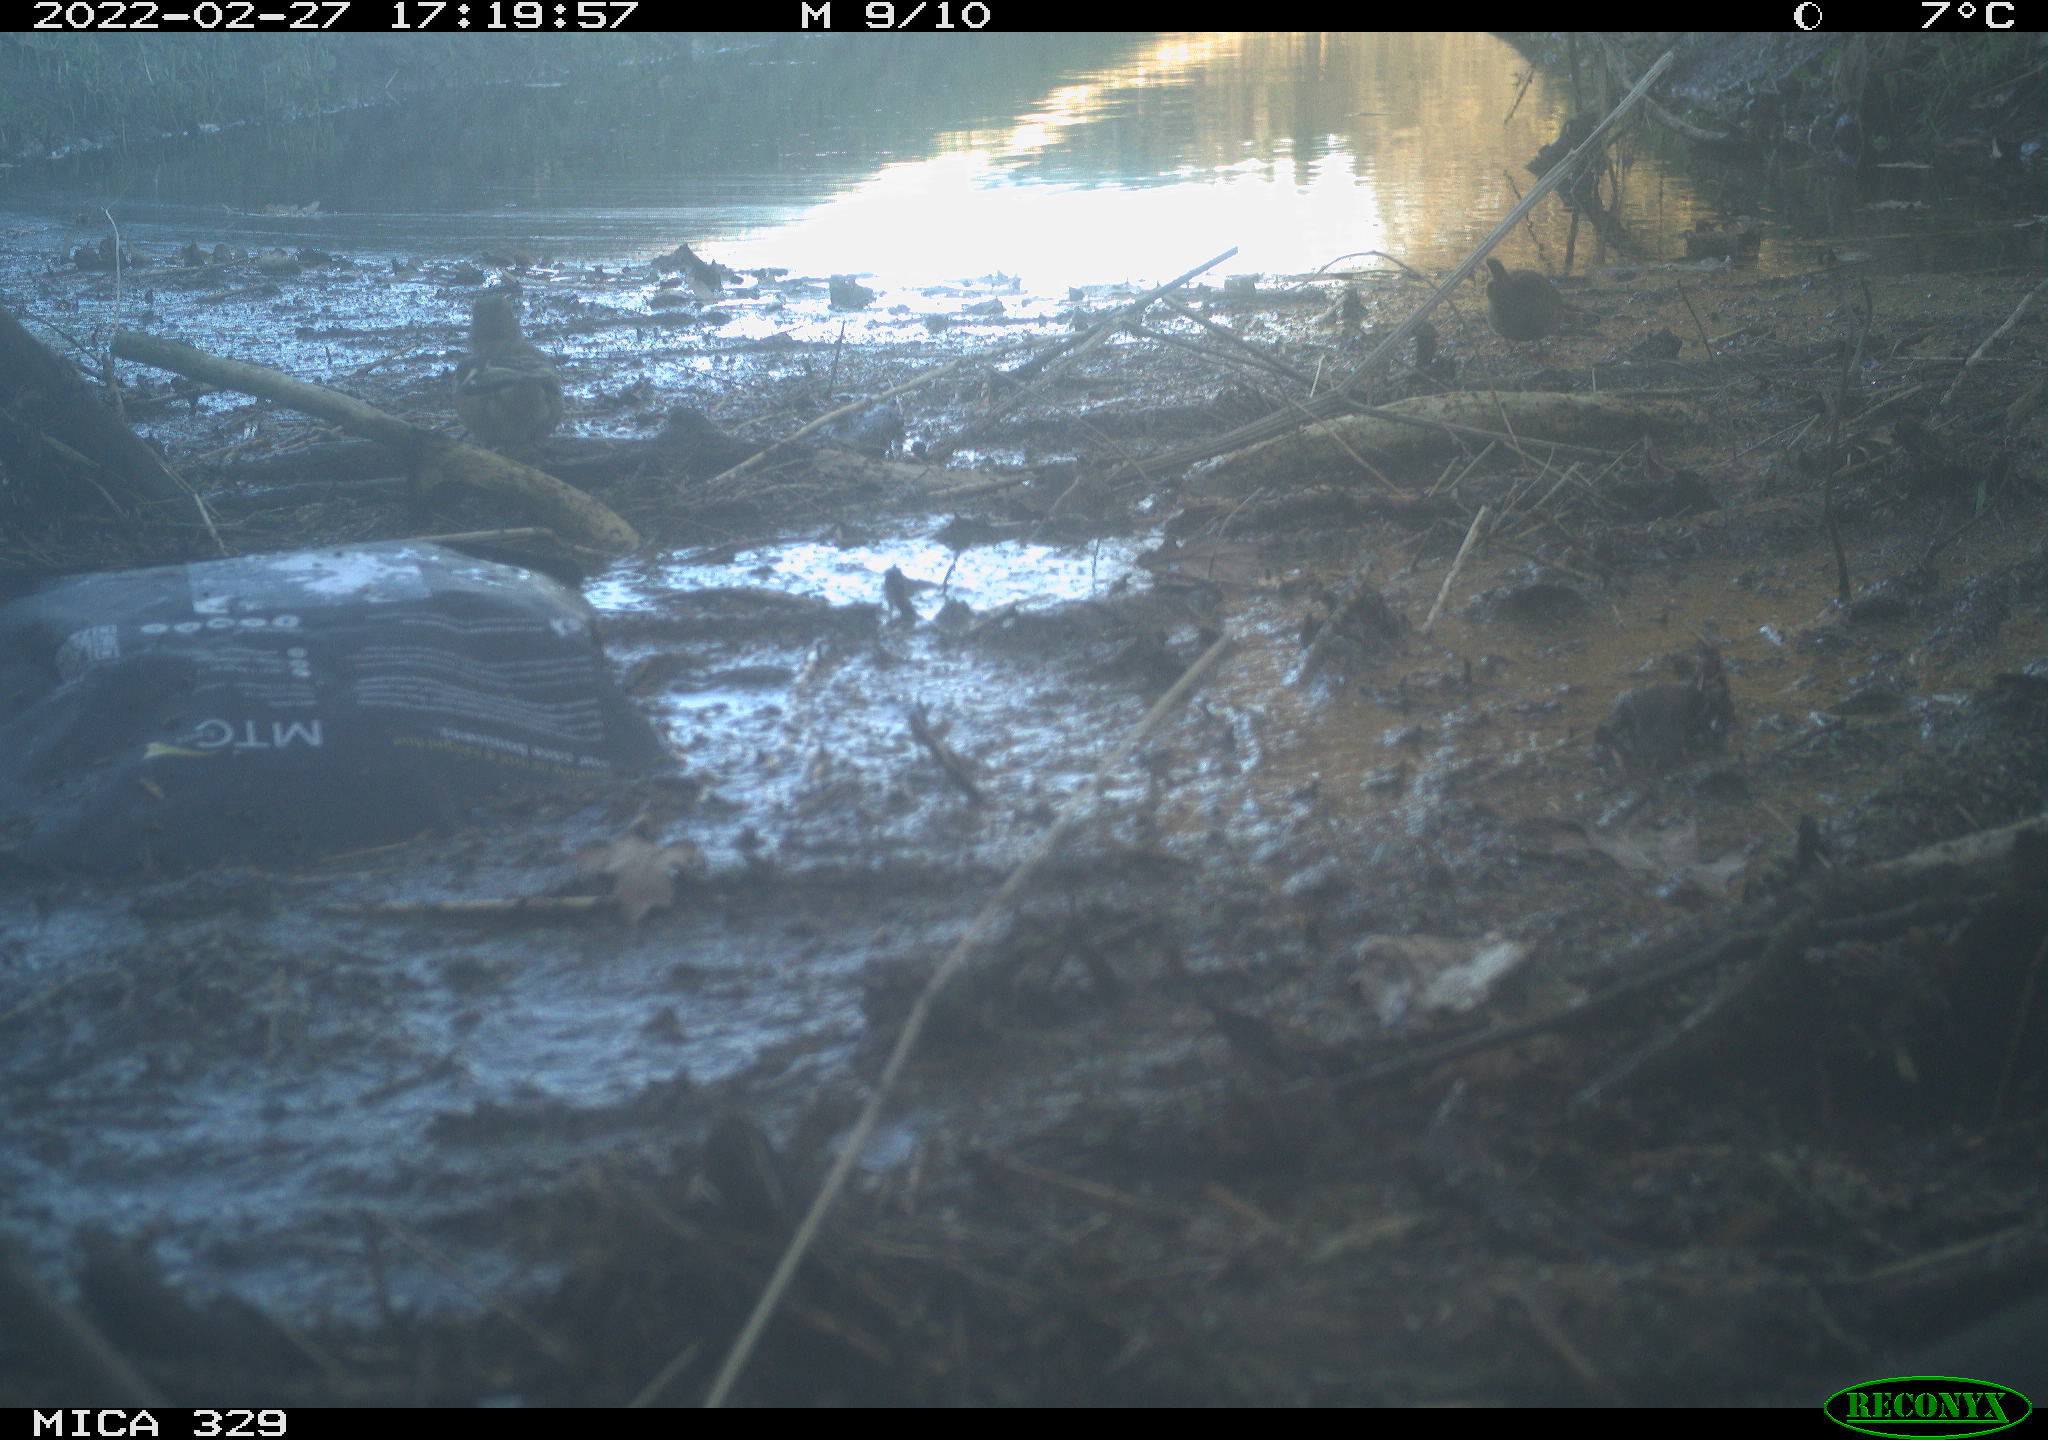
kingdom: Animalia
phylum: Chordata
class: Aves
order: Passeriformes
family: Troglodytidae
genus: Troglodytes
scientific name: Troglodytes troglodytes
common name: Eurasian wren
